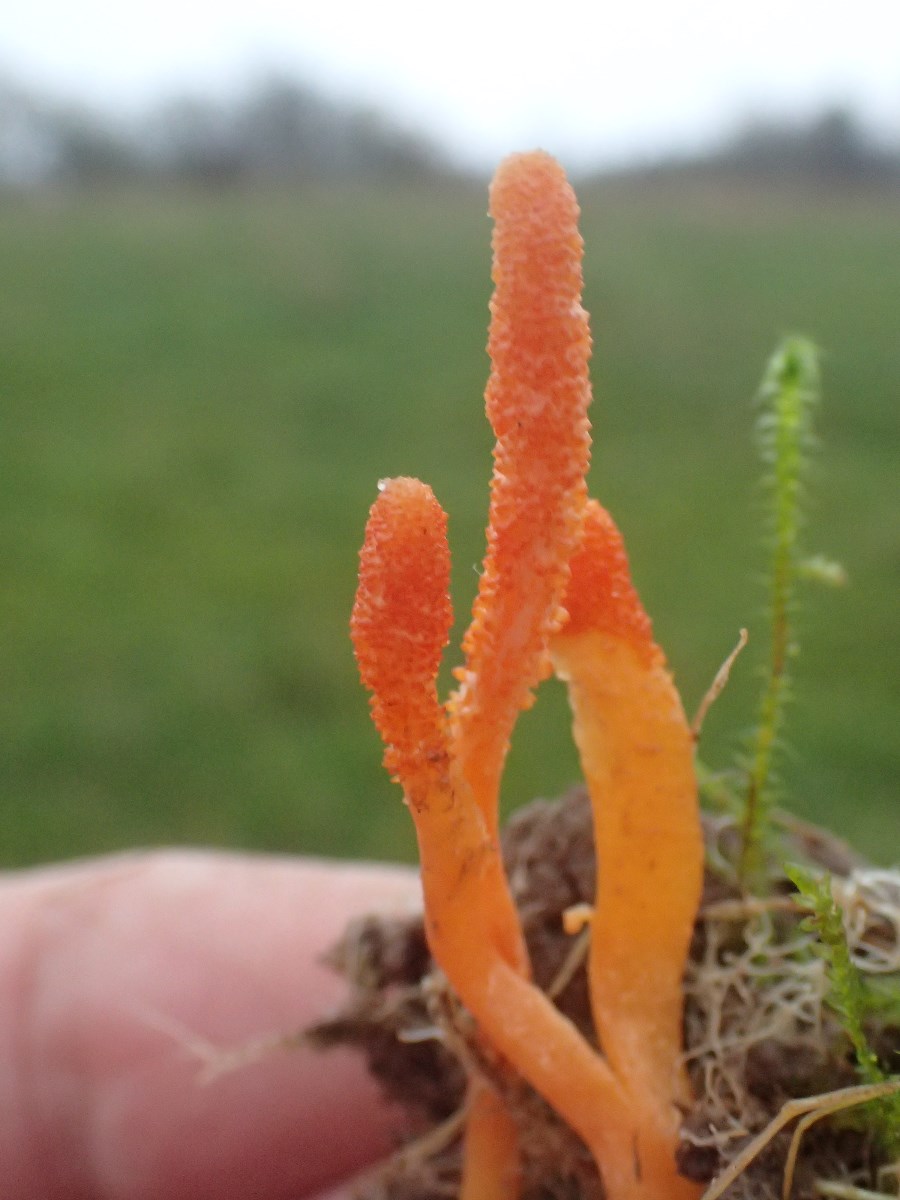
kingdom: Fungi
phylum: Ascomycota
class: Sordariomycetes
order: Hypocreales
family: Cordycipitaceae
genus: Cordyceps
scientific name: Cordyceps militaris
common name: puppe-snyltekølle
